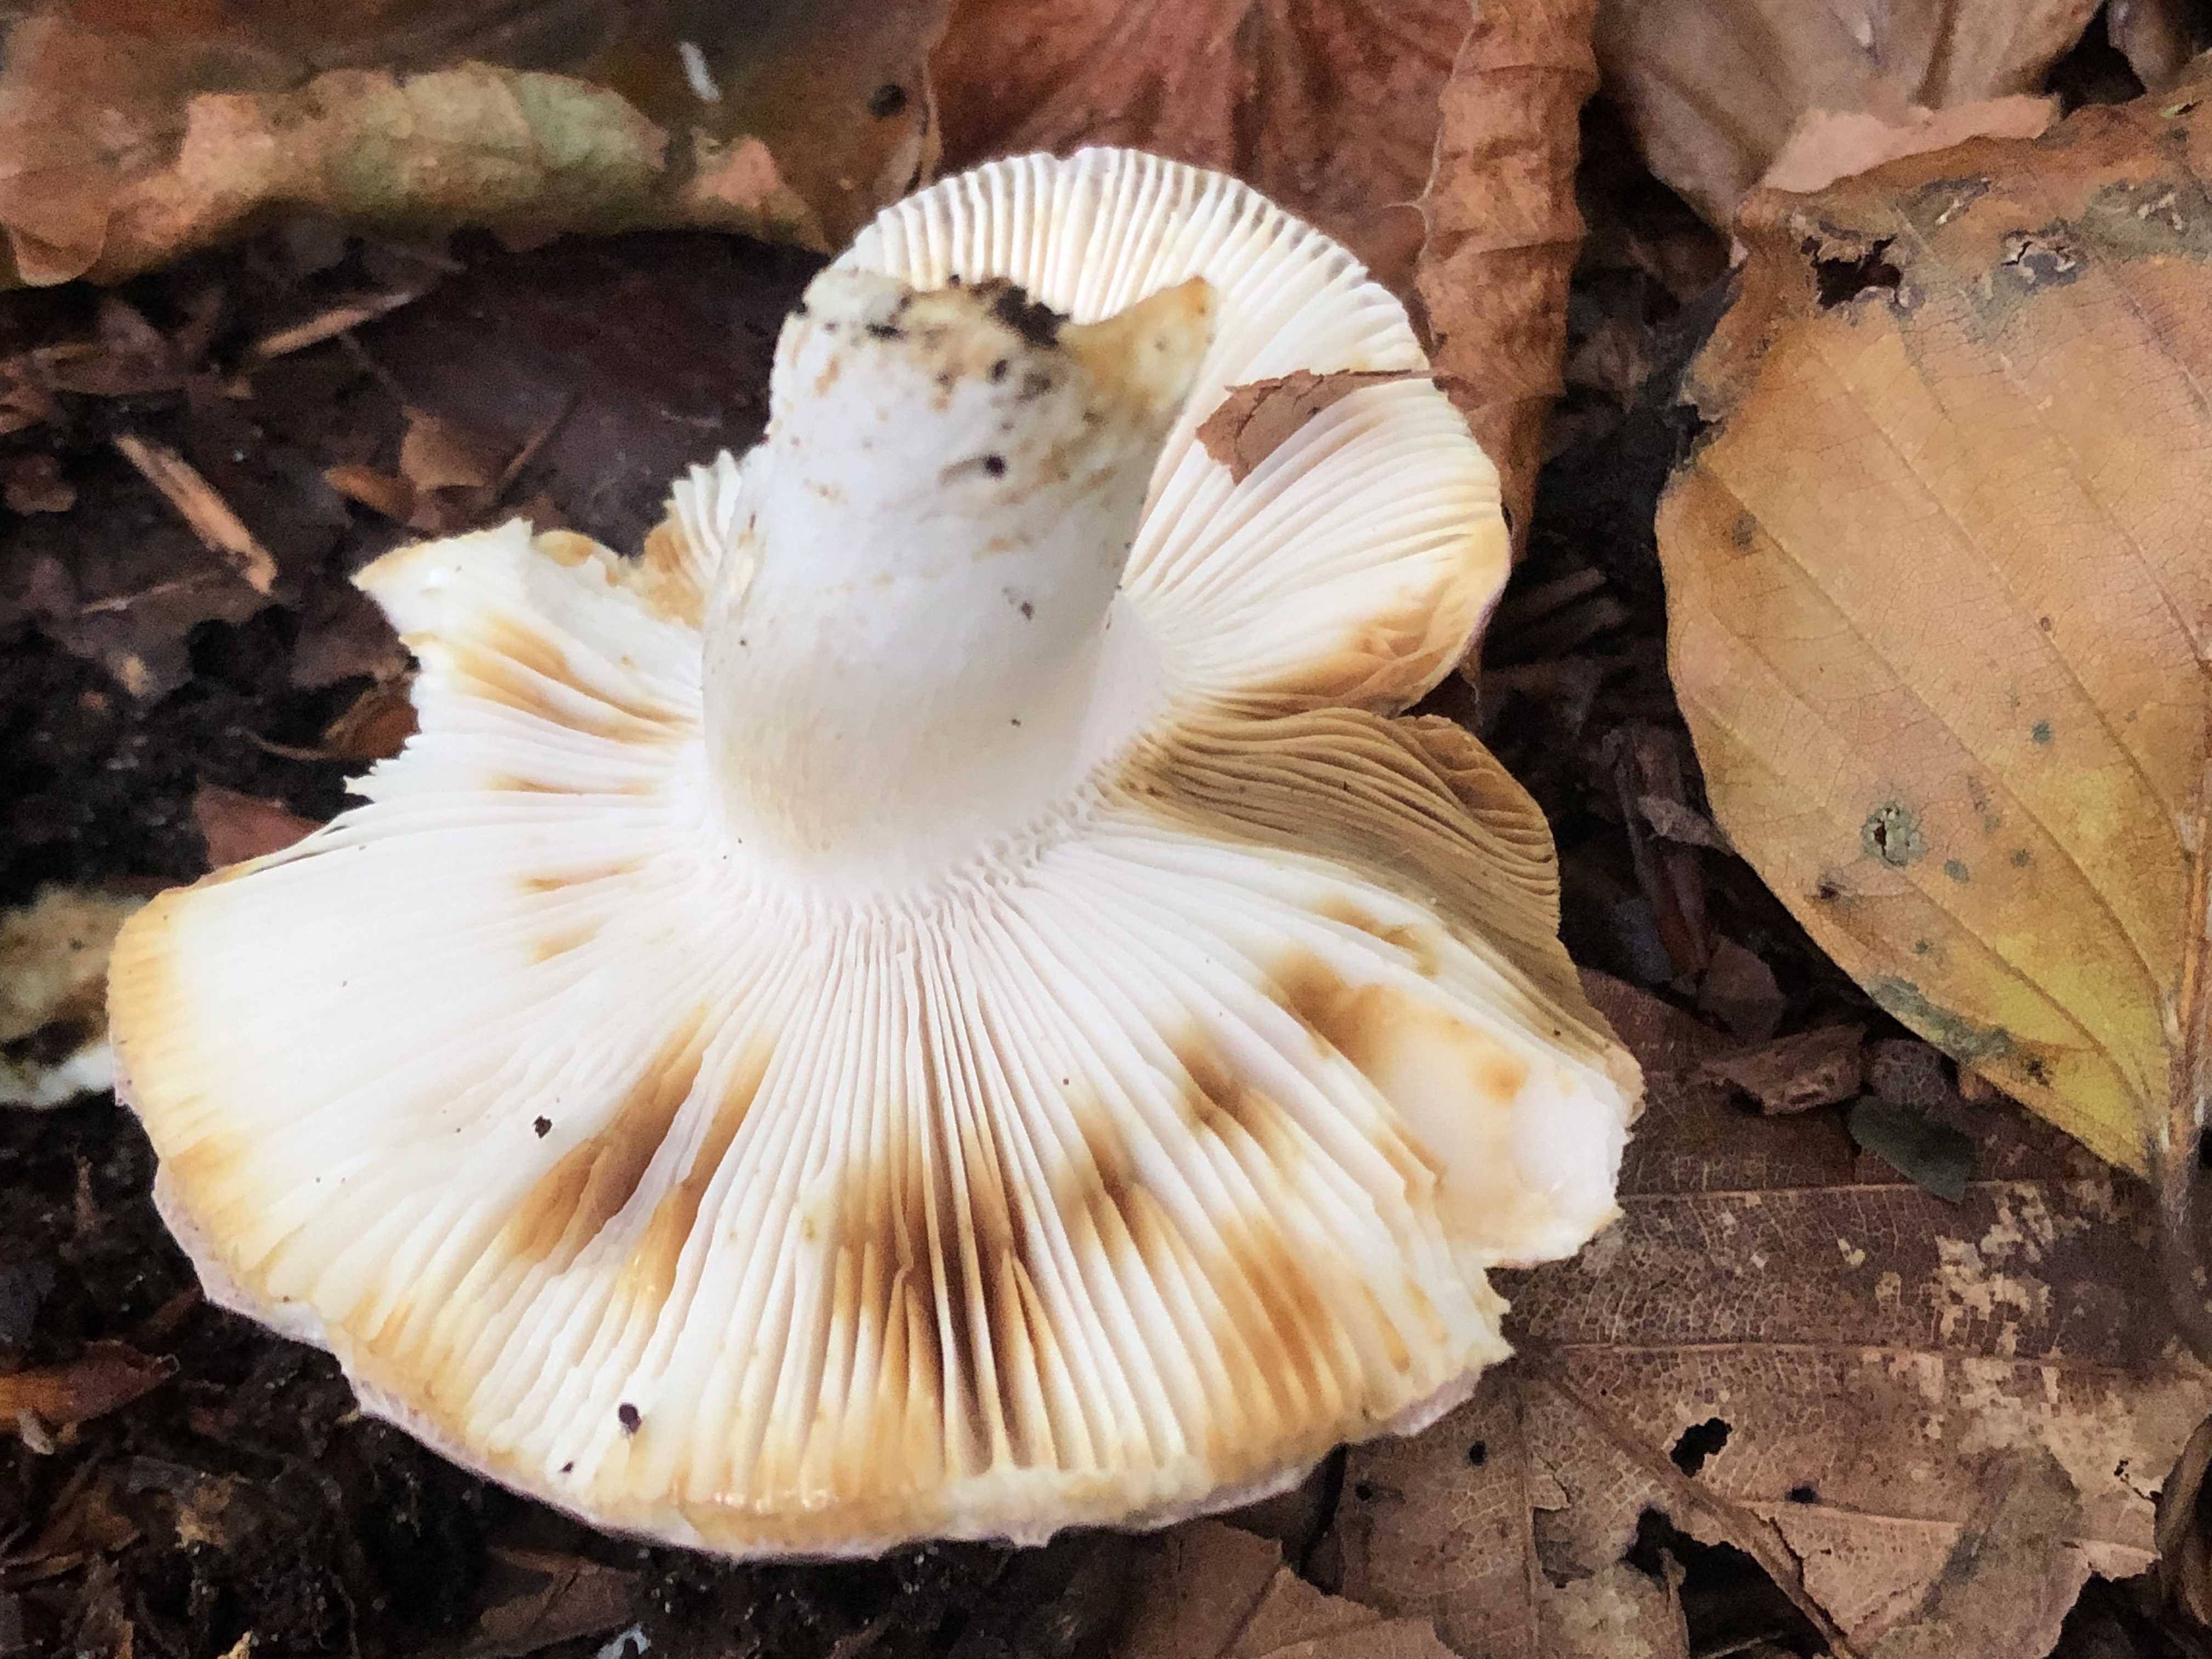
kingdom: Fungi
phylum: Basidiomycota
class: Agaricomycetes
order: Russulales
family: Russulaceae
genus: Russula
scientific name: Russula nobilis
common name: lille gift-skørhat
